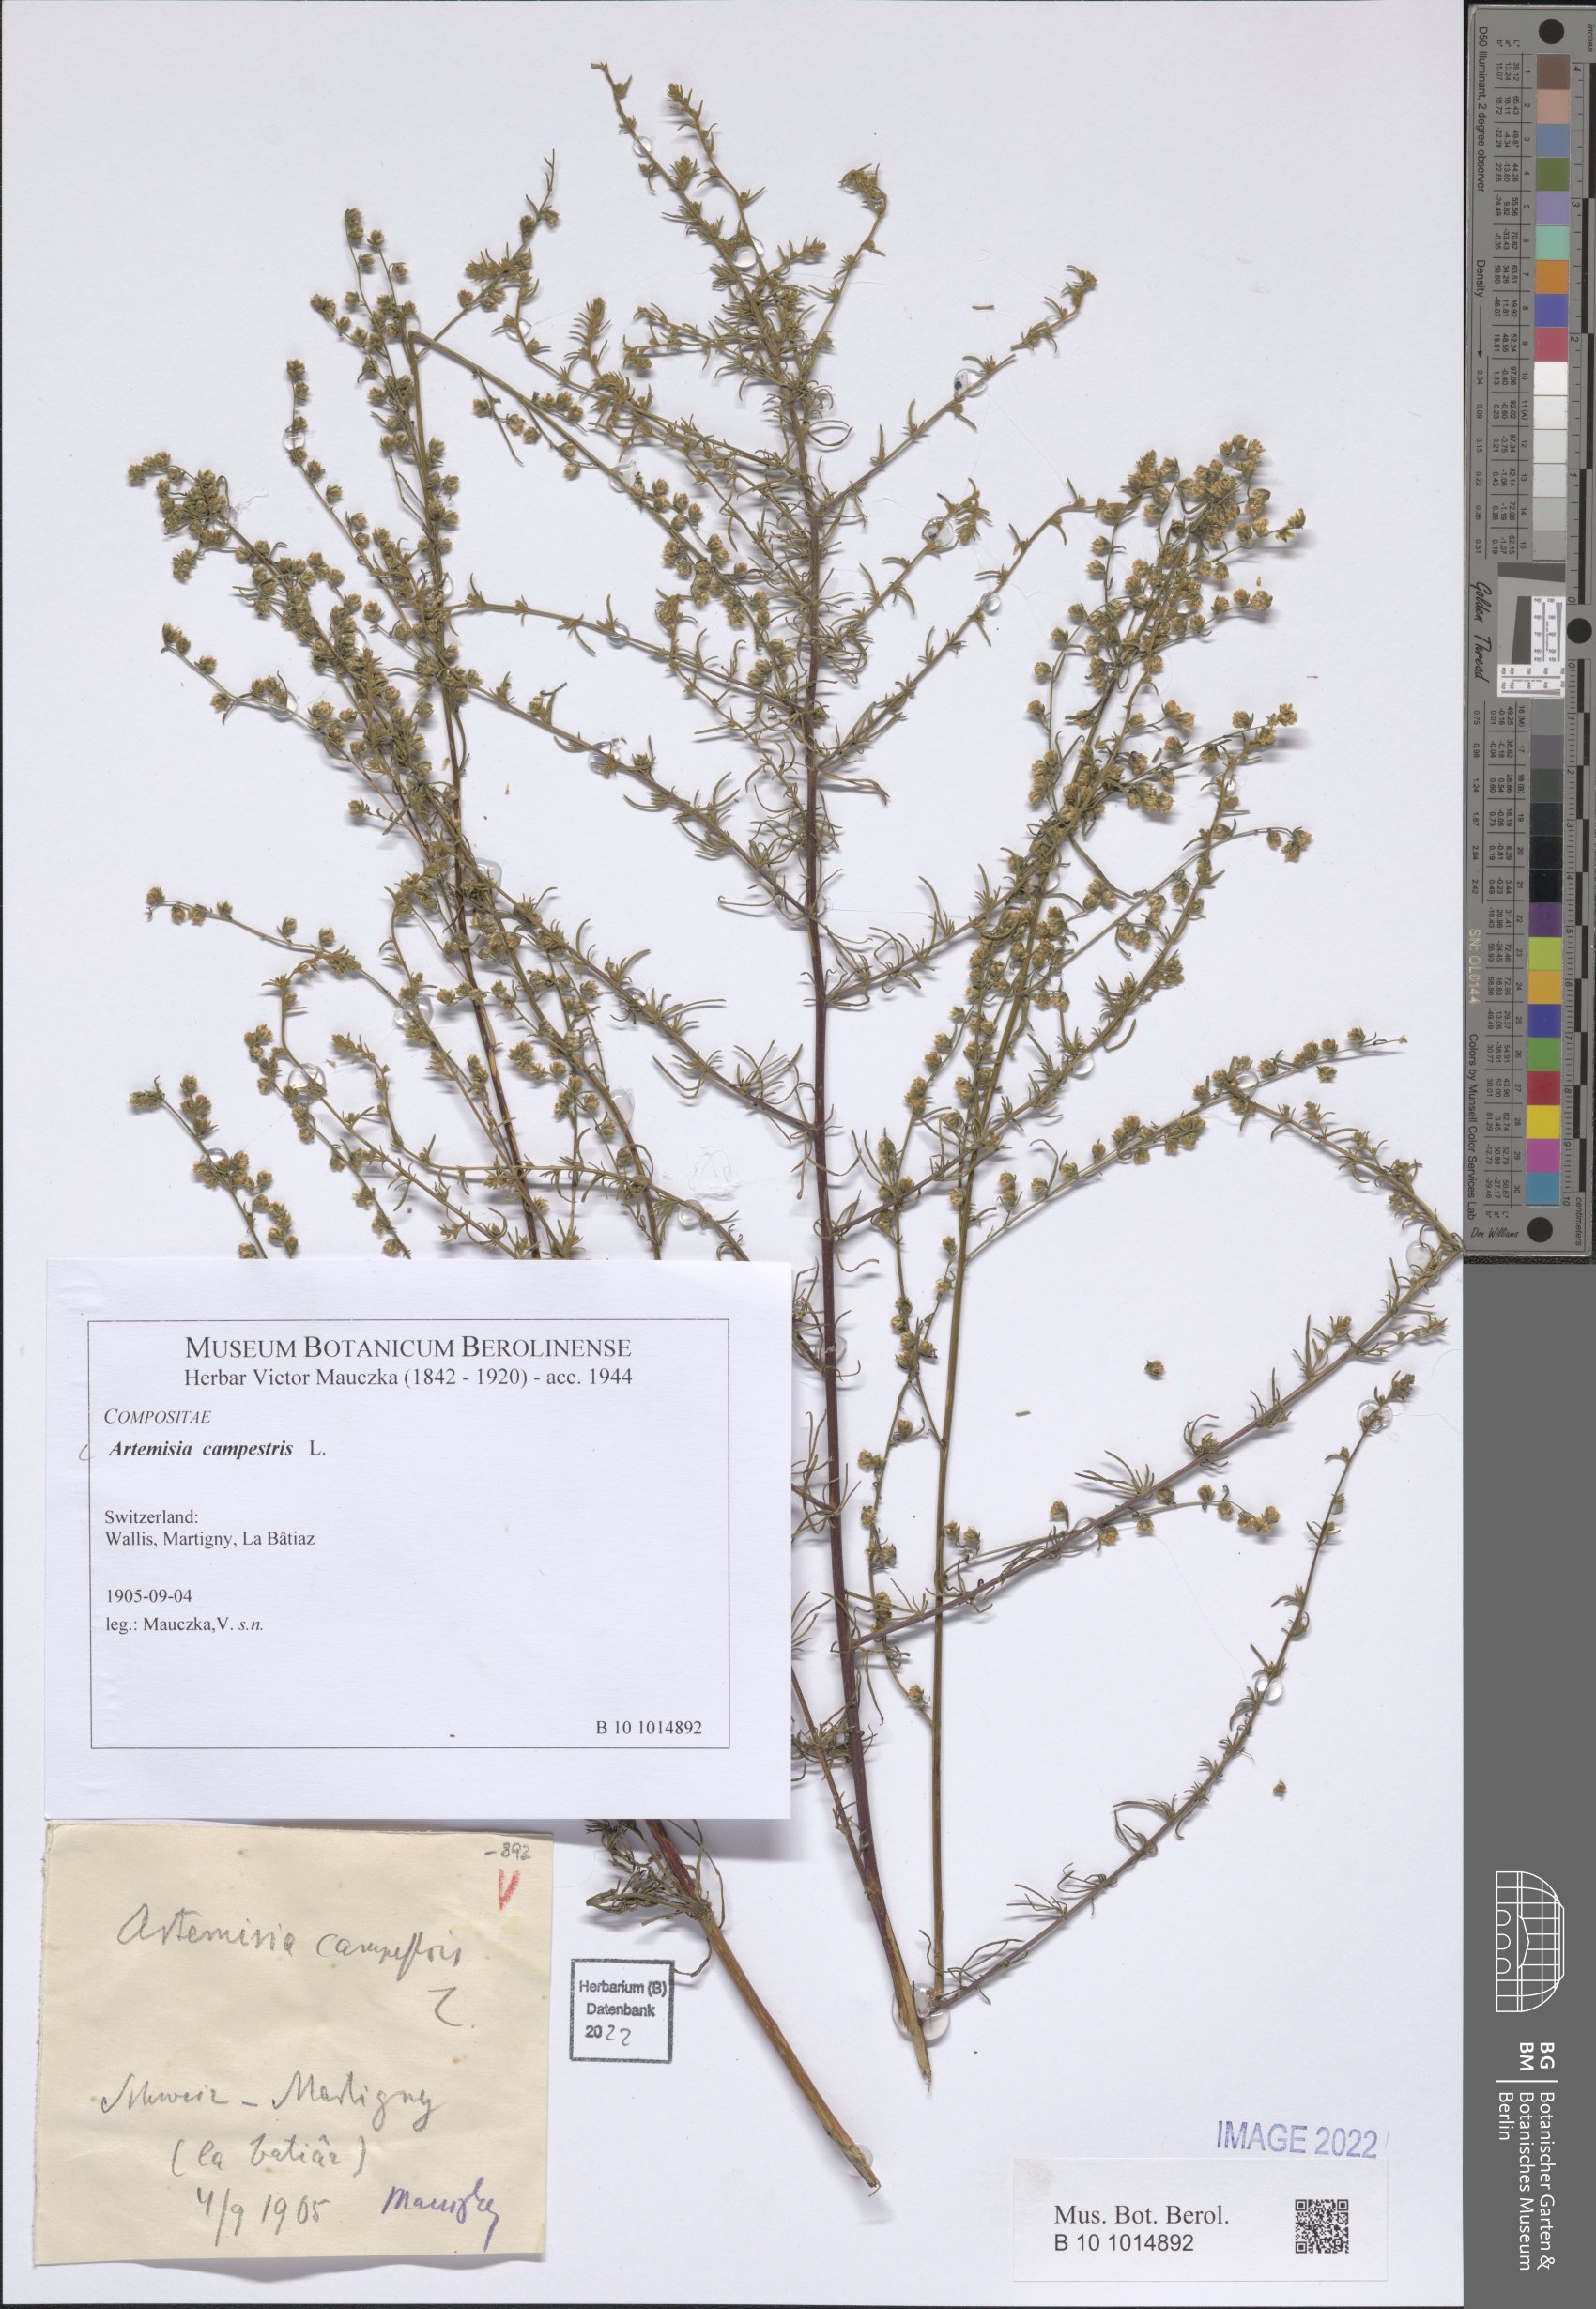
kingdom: Plantae
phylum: Tracheophyta
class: Magnoliopsida
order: Asterales
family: Asteraceae
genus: Artemisia
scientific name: Artemisia campestris
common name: Field wormwood
